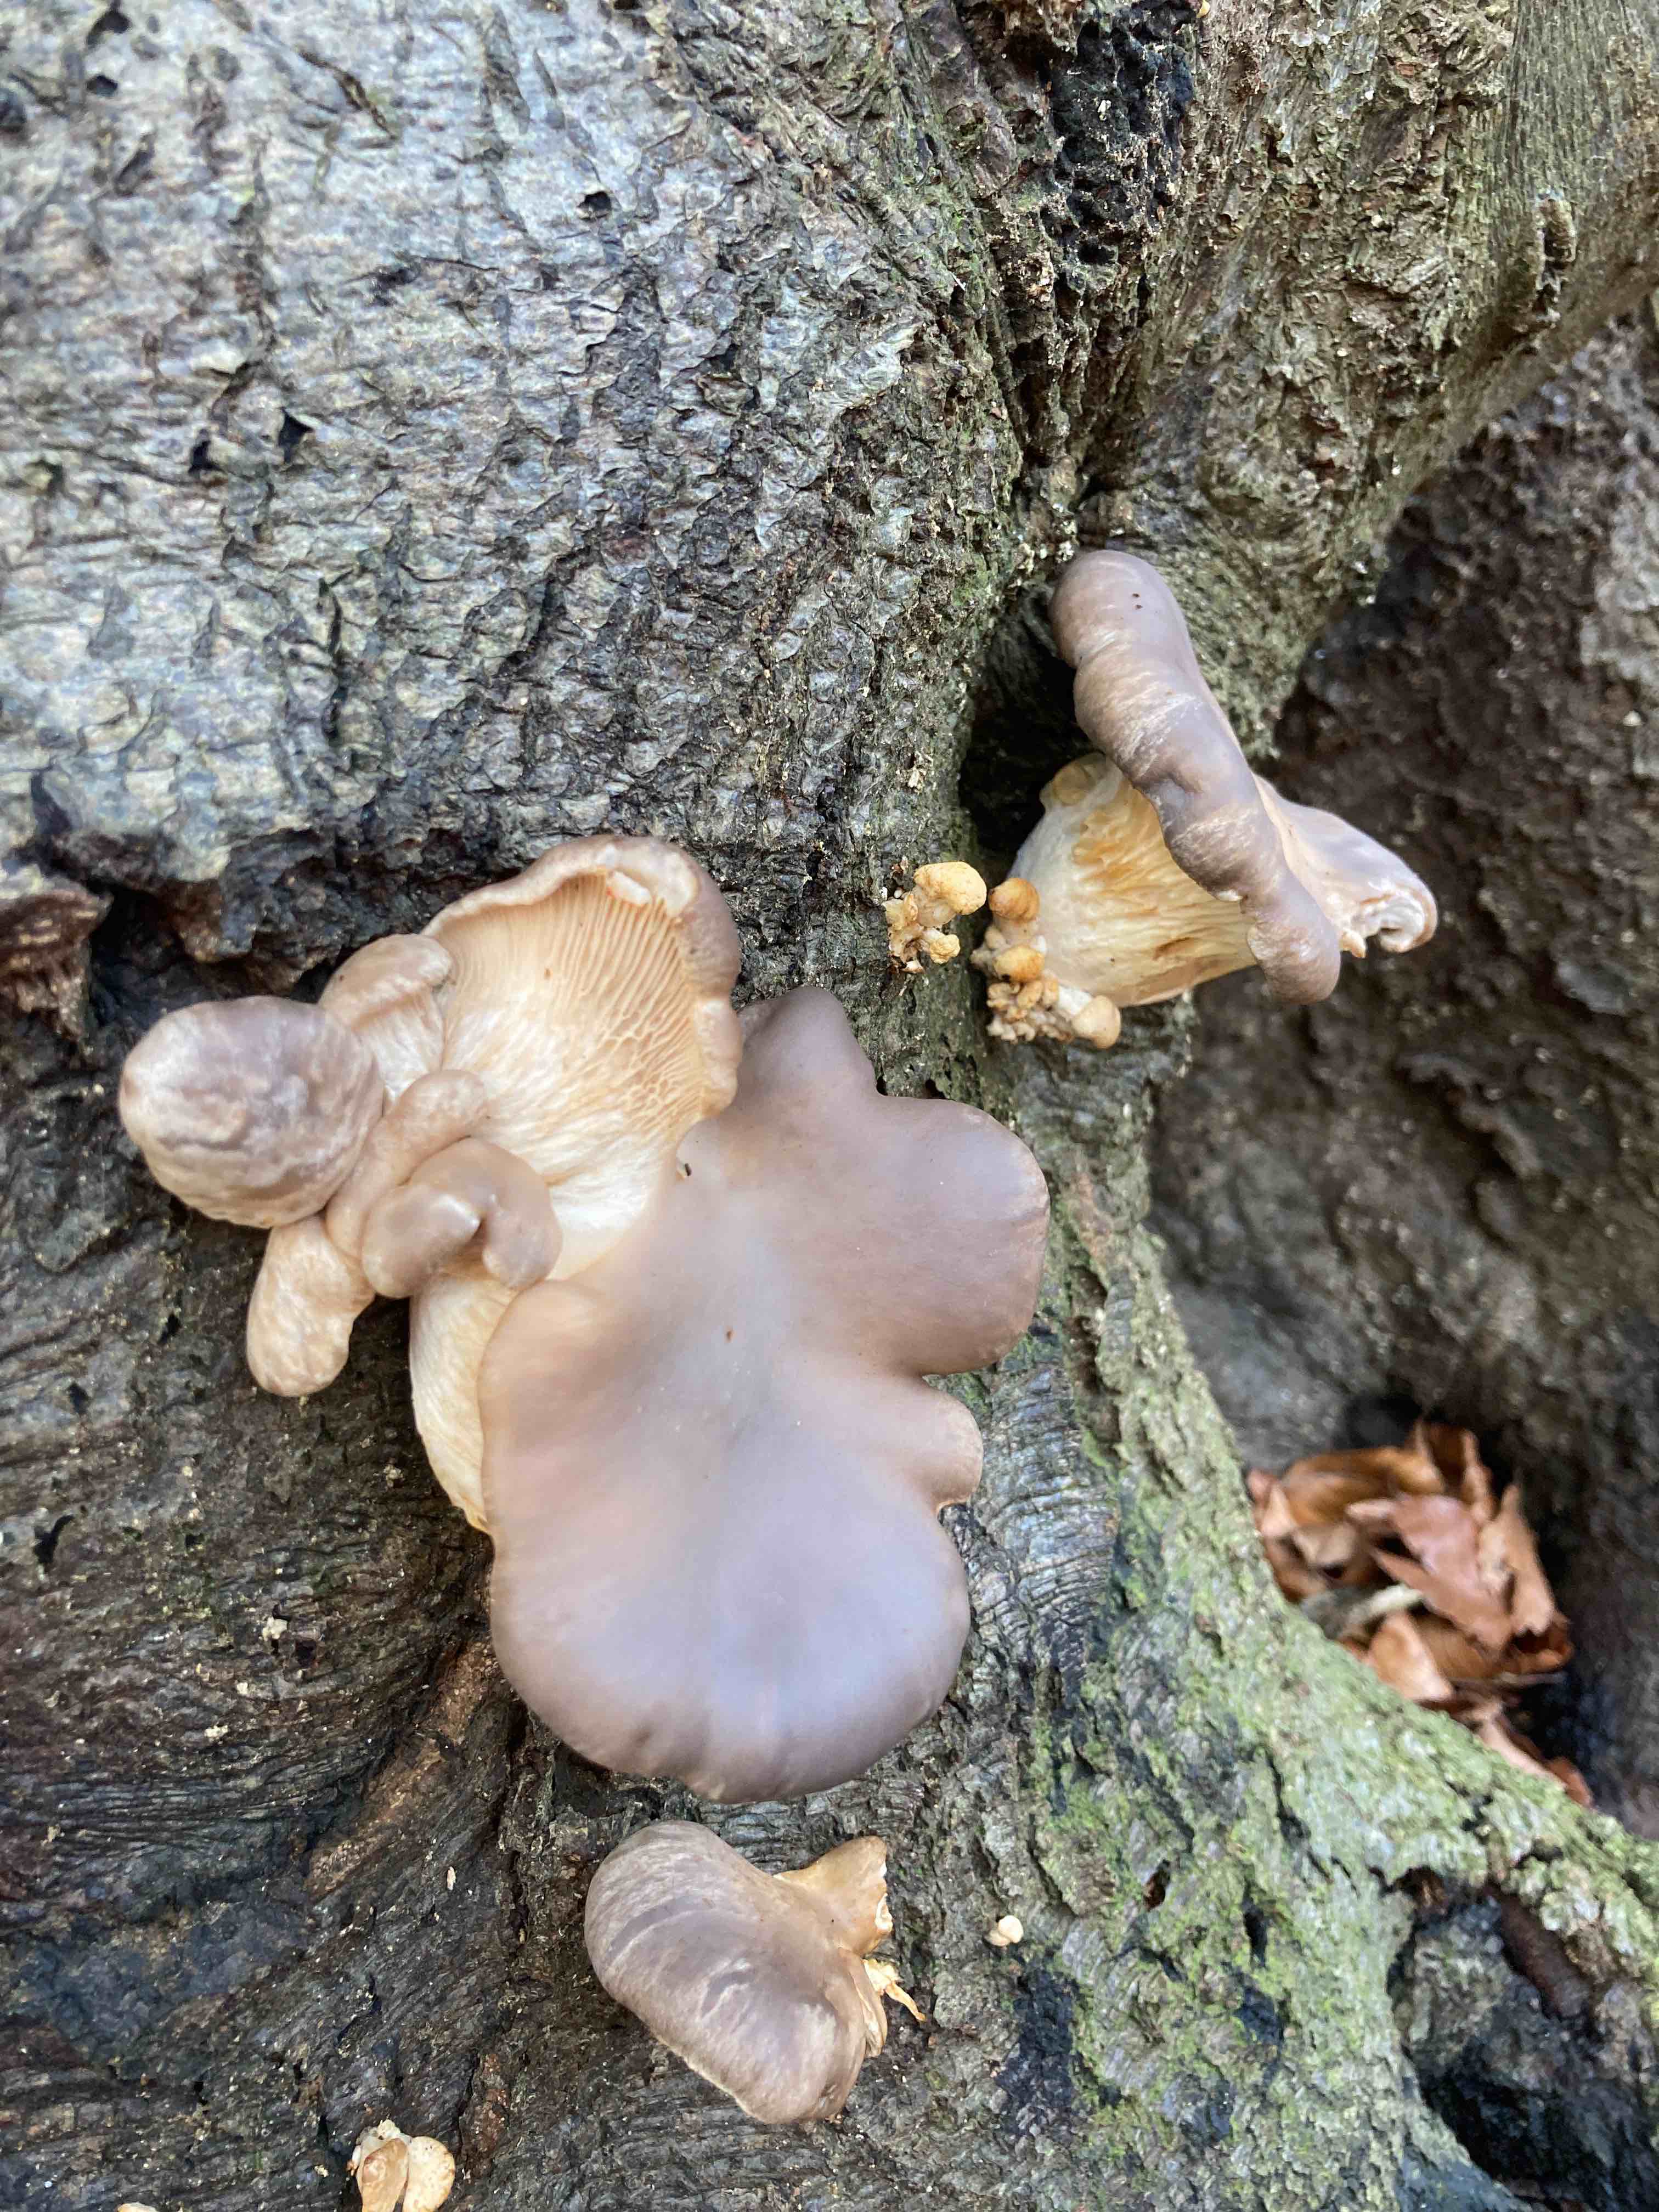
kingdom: Fungi
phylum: Basidiomycota
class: Agaricomycetes
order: Agaricales
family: Pleurotaceae
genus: Pleurotus
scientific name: Pleurotus ostreatus
